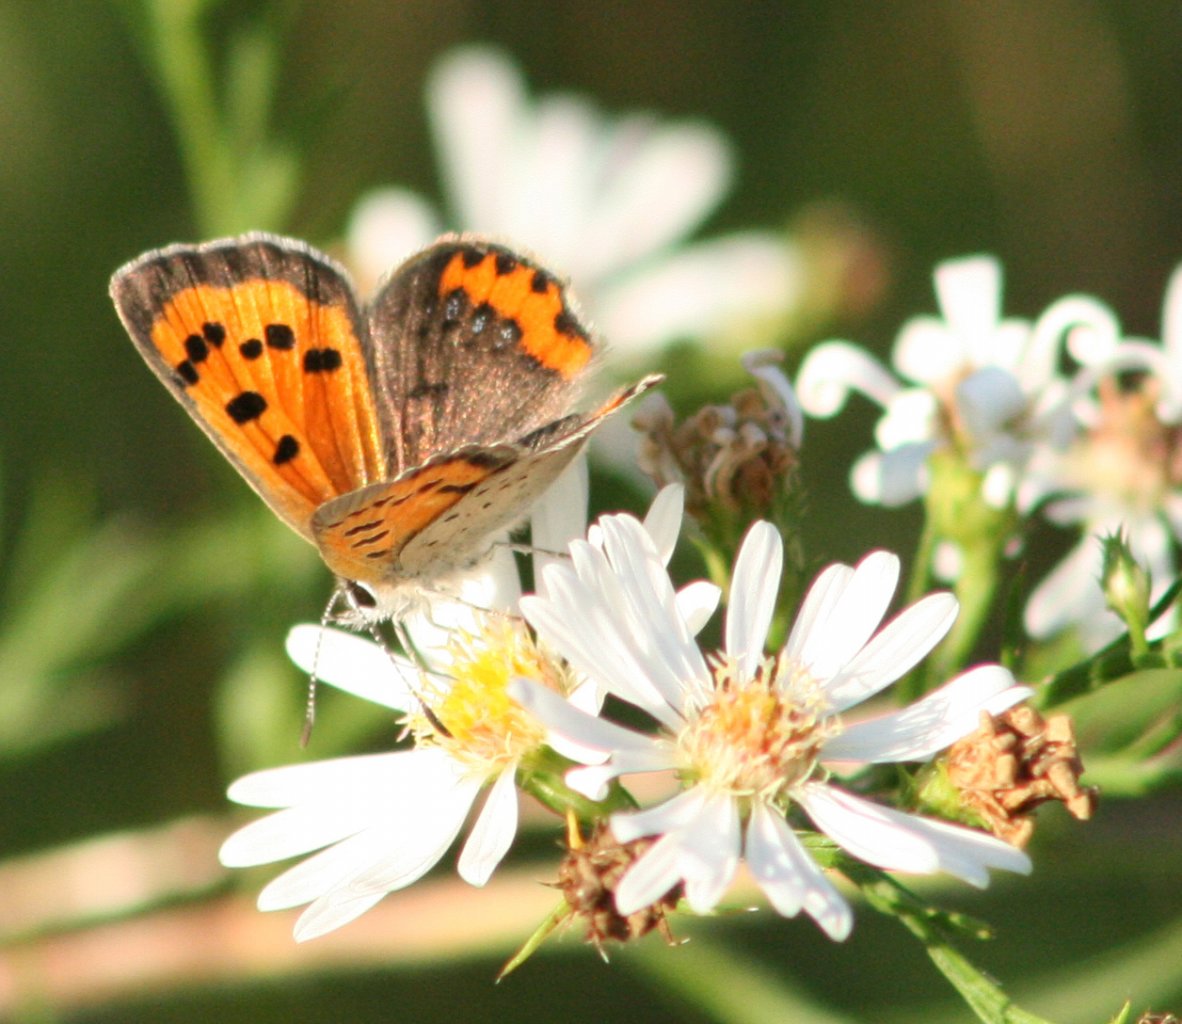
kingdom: Animalia
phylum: Arthropoda
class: Insecta
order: Lepidoptera
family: Lycaenidae
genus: Lycaena
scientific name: Lycaena phlaeas
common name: American Copper
